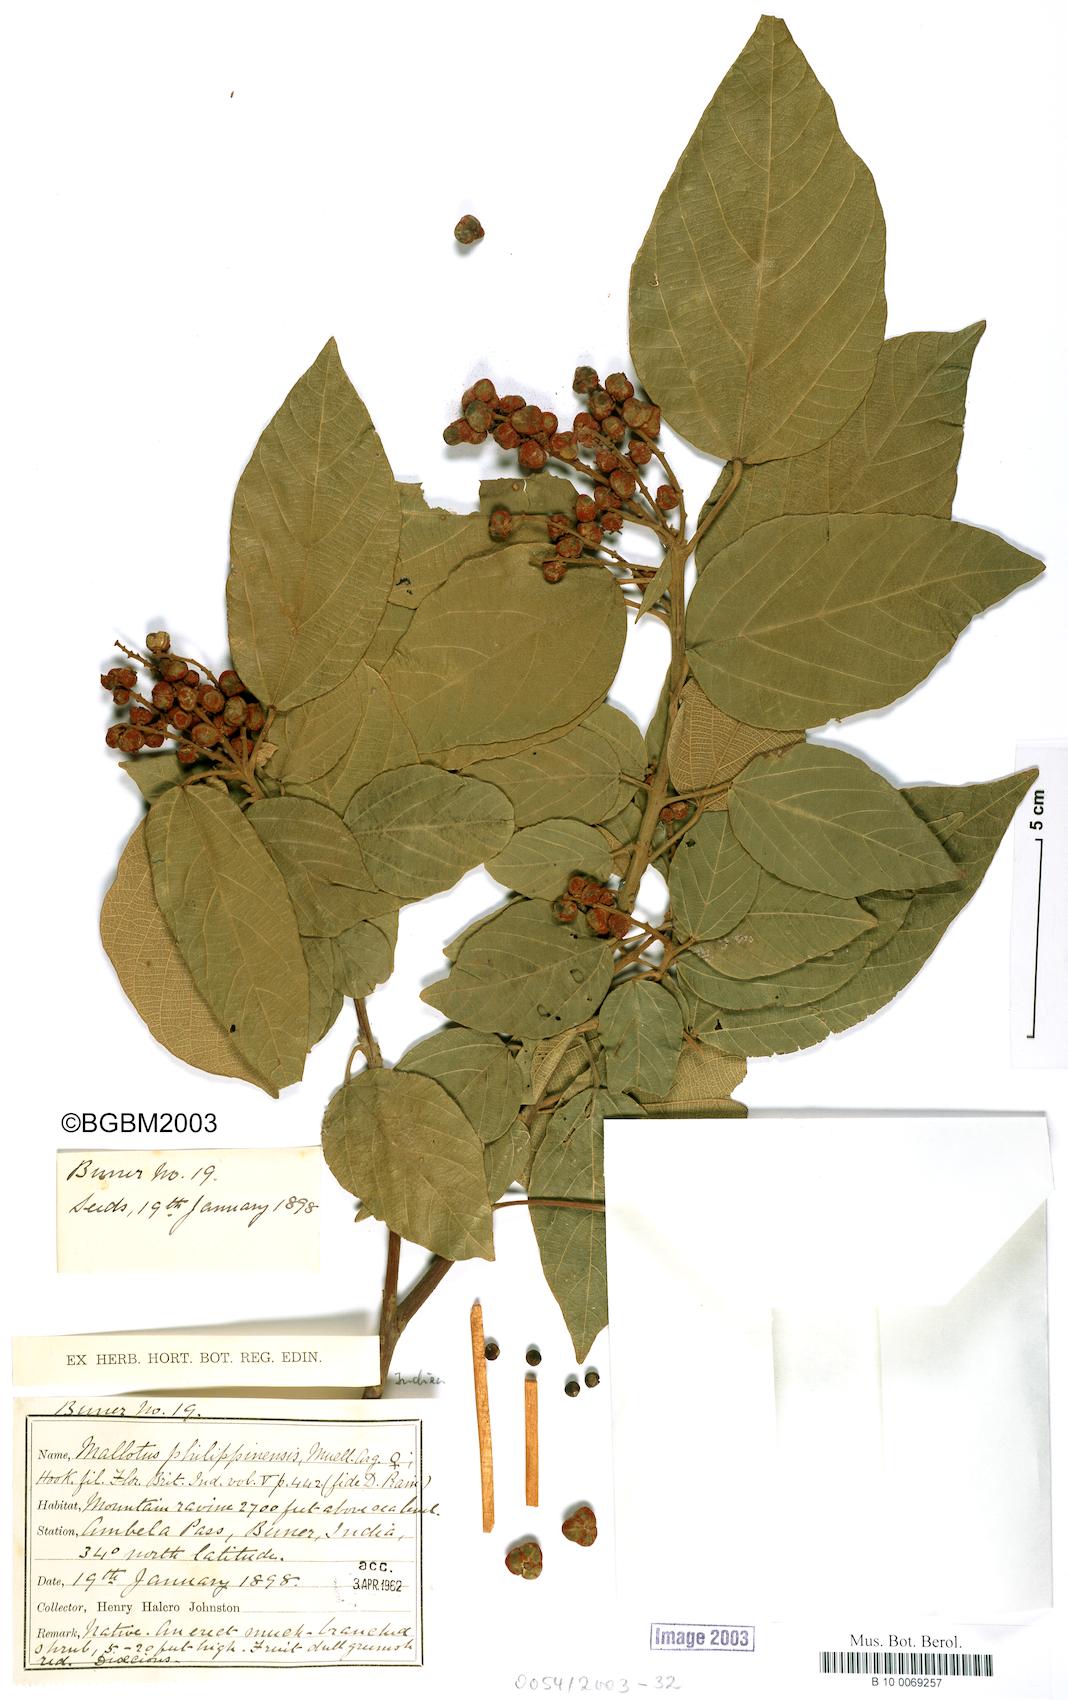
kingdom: Plantae
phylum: Tracheophyta
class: Magnoliopsida
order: Malpighiales
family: Euphorbiaceae
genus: Mallotus
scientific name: Mallotus philippensis
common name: Kamala tree
